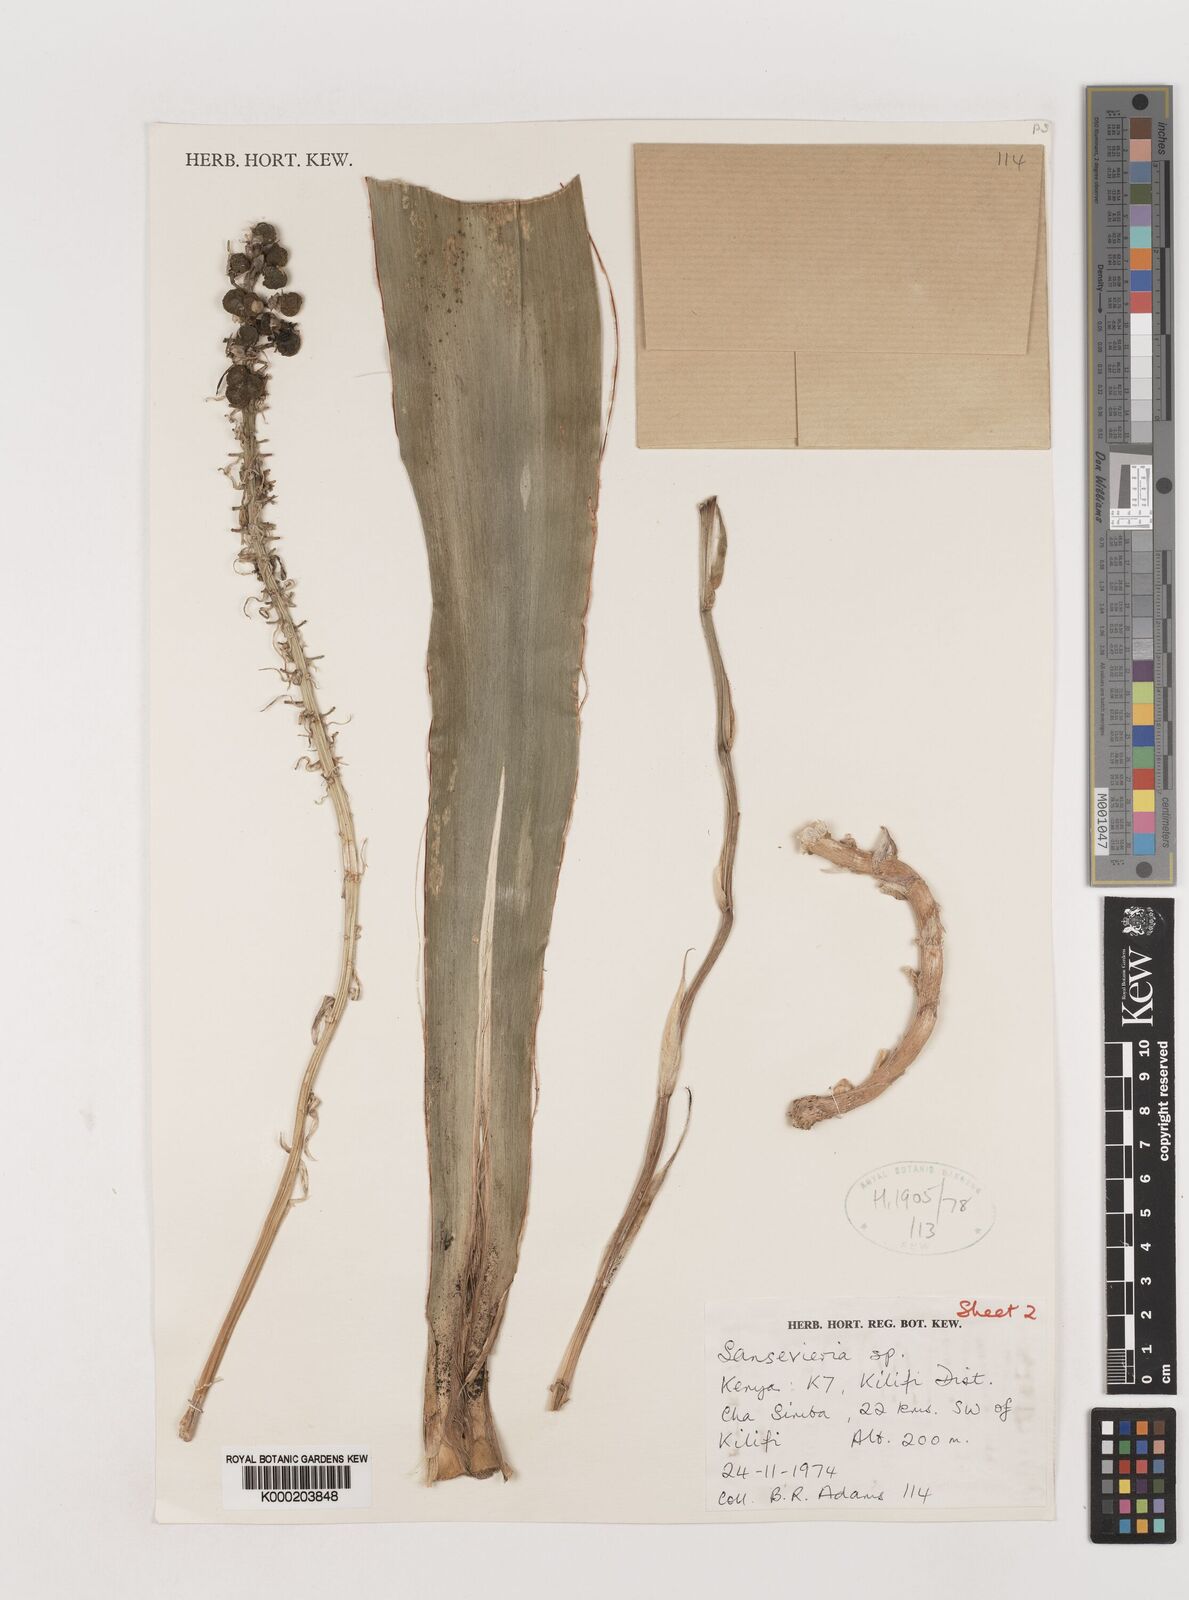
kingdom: Plantae
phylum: Tracheophyta
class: Liliopsida
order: Asparagales
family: Asparagaceae
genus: Dracaena
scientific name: Dracaena conspicua
